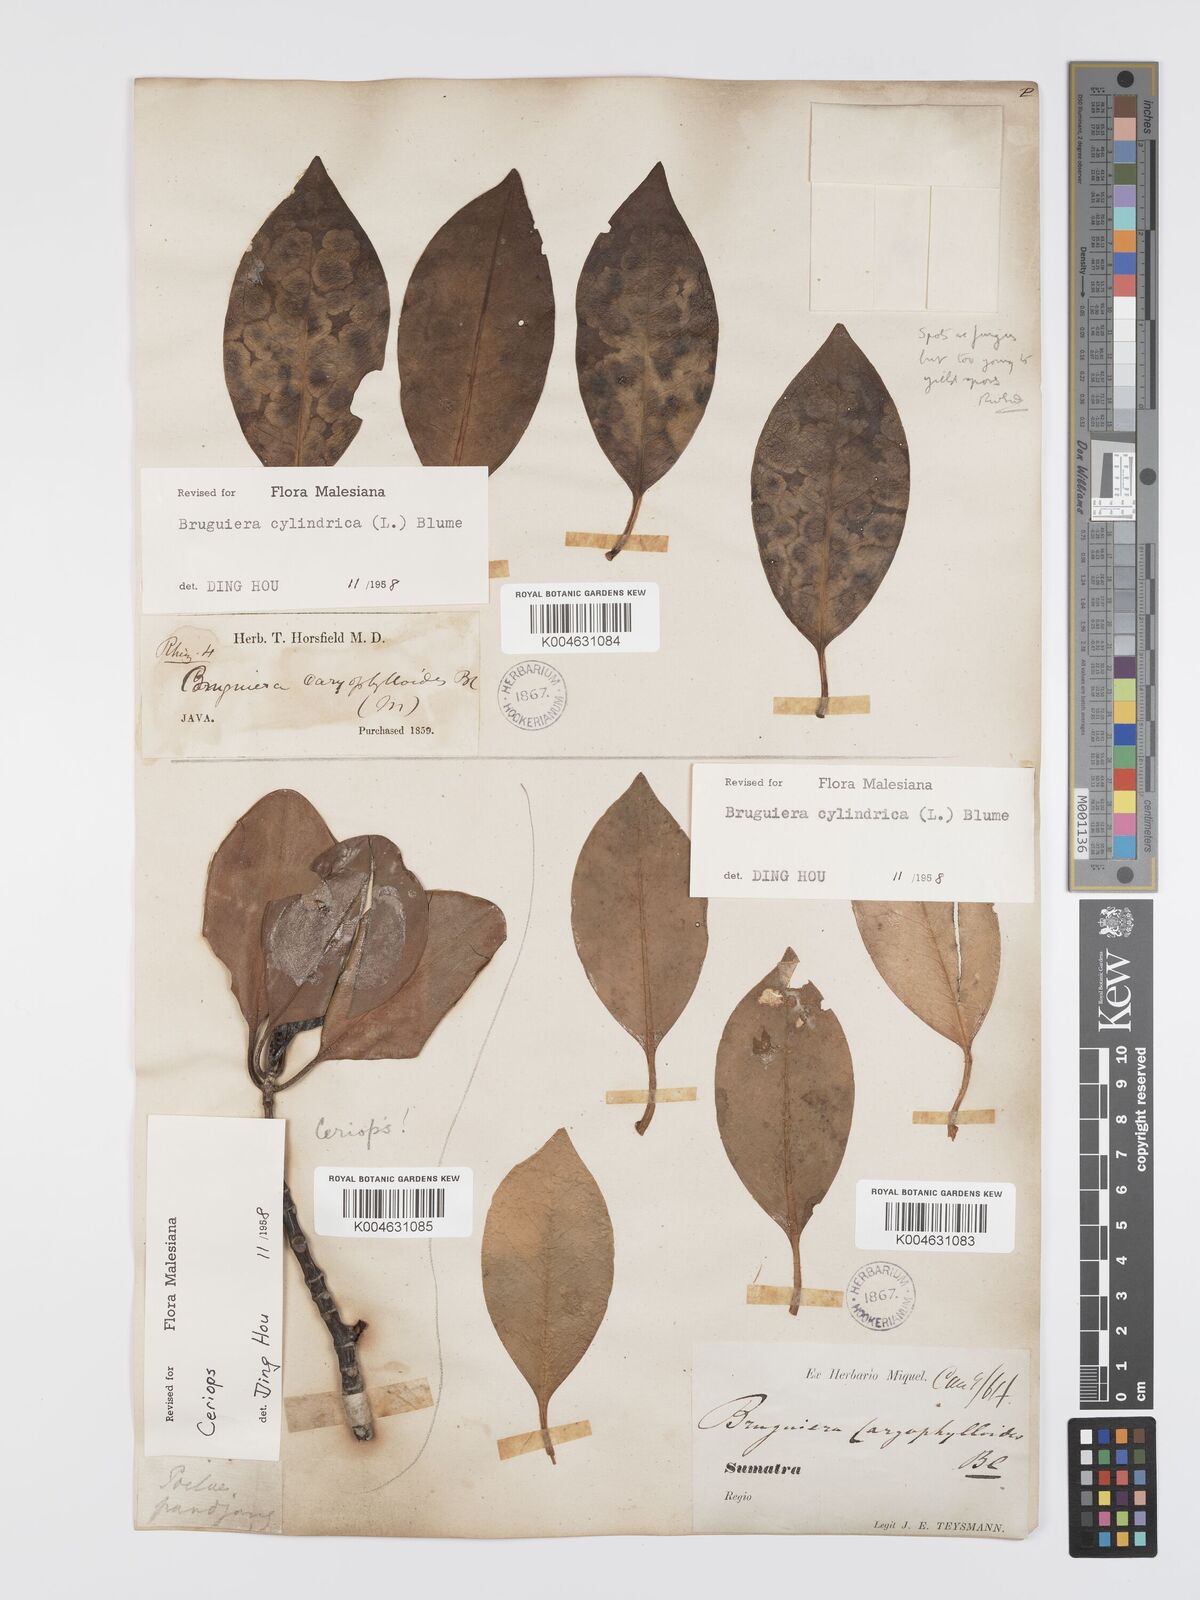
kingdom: Plantae
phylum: Tracheophyta
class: Magnoliopsida
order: Malpighiales
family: Rhizophoraceae
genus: Bruguiera
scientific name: Bruguiera cylindrica
